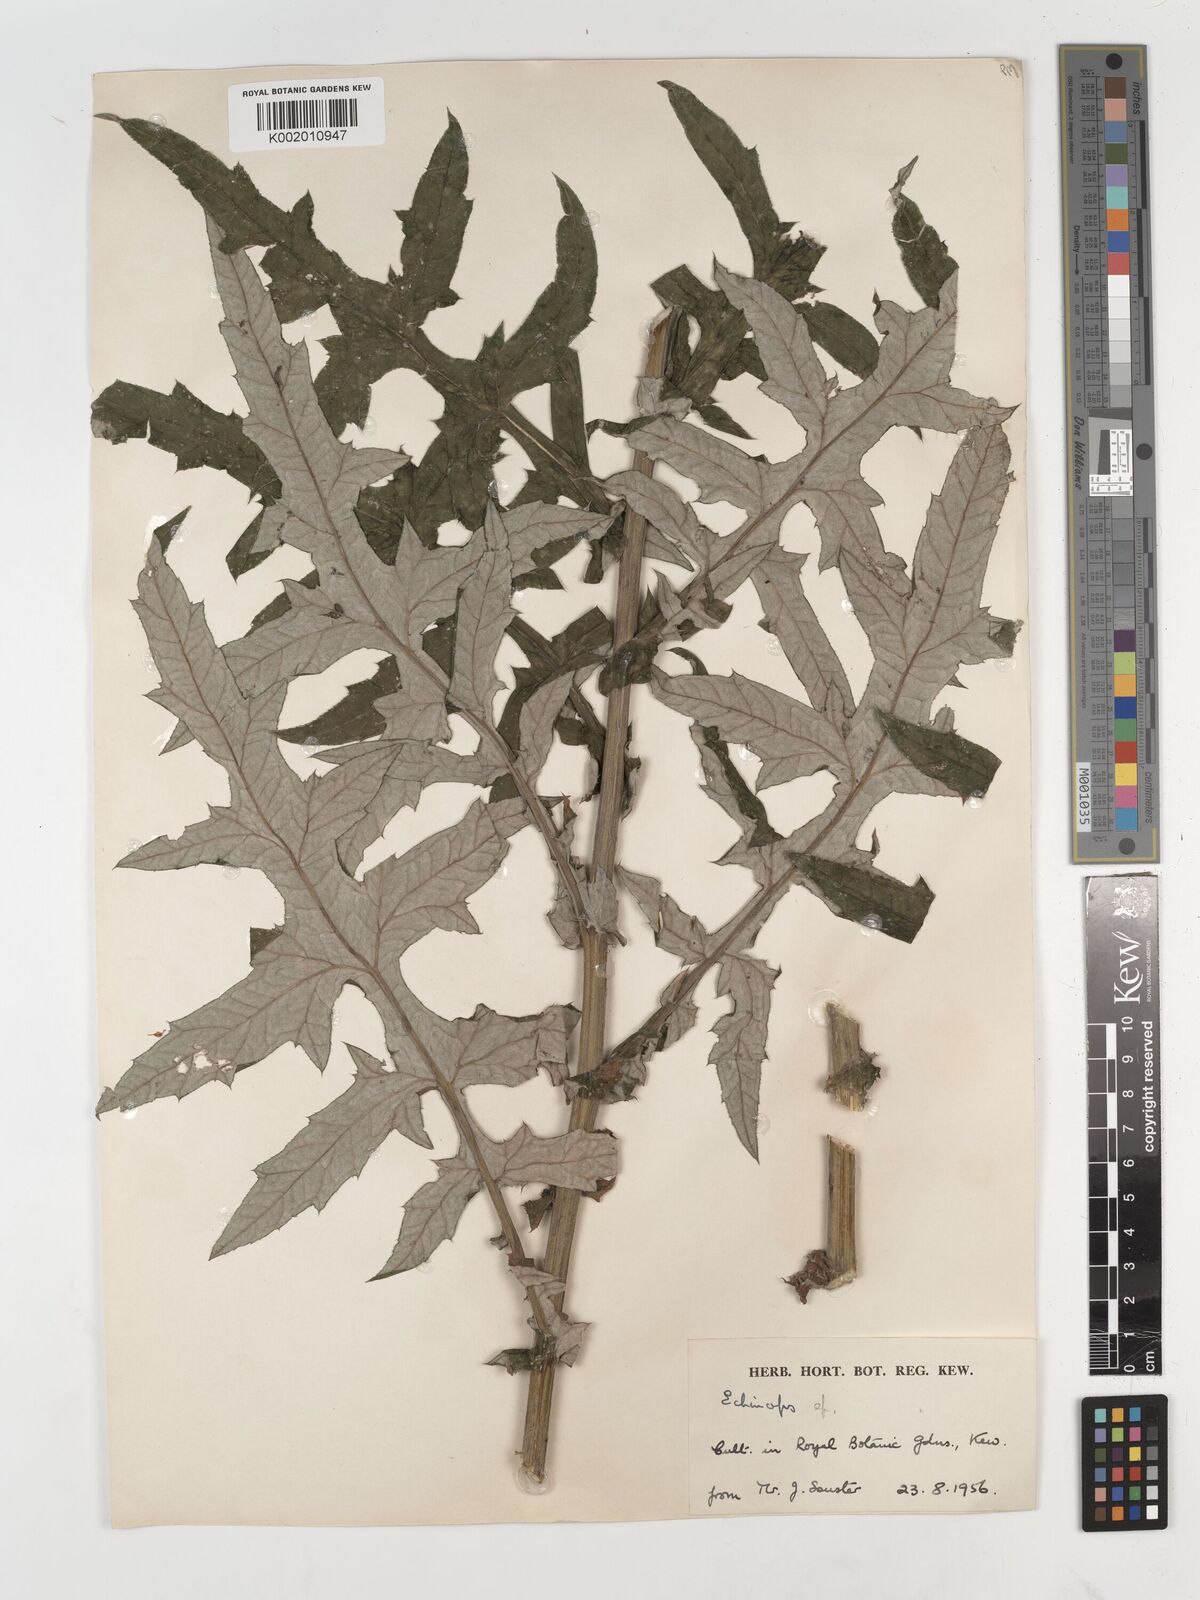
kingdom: Plantae
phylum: Tracheophyta
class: Magnoliopsida
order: Asterales
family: Asteraceae
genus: Echinops
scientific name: Echinops
